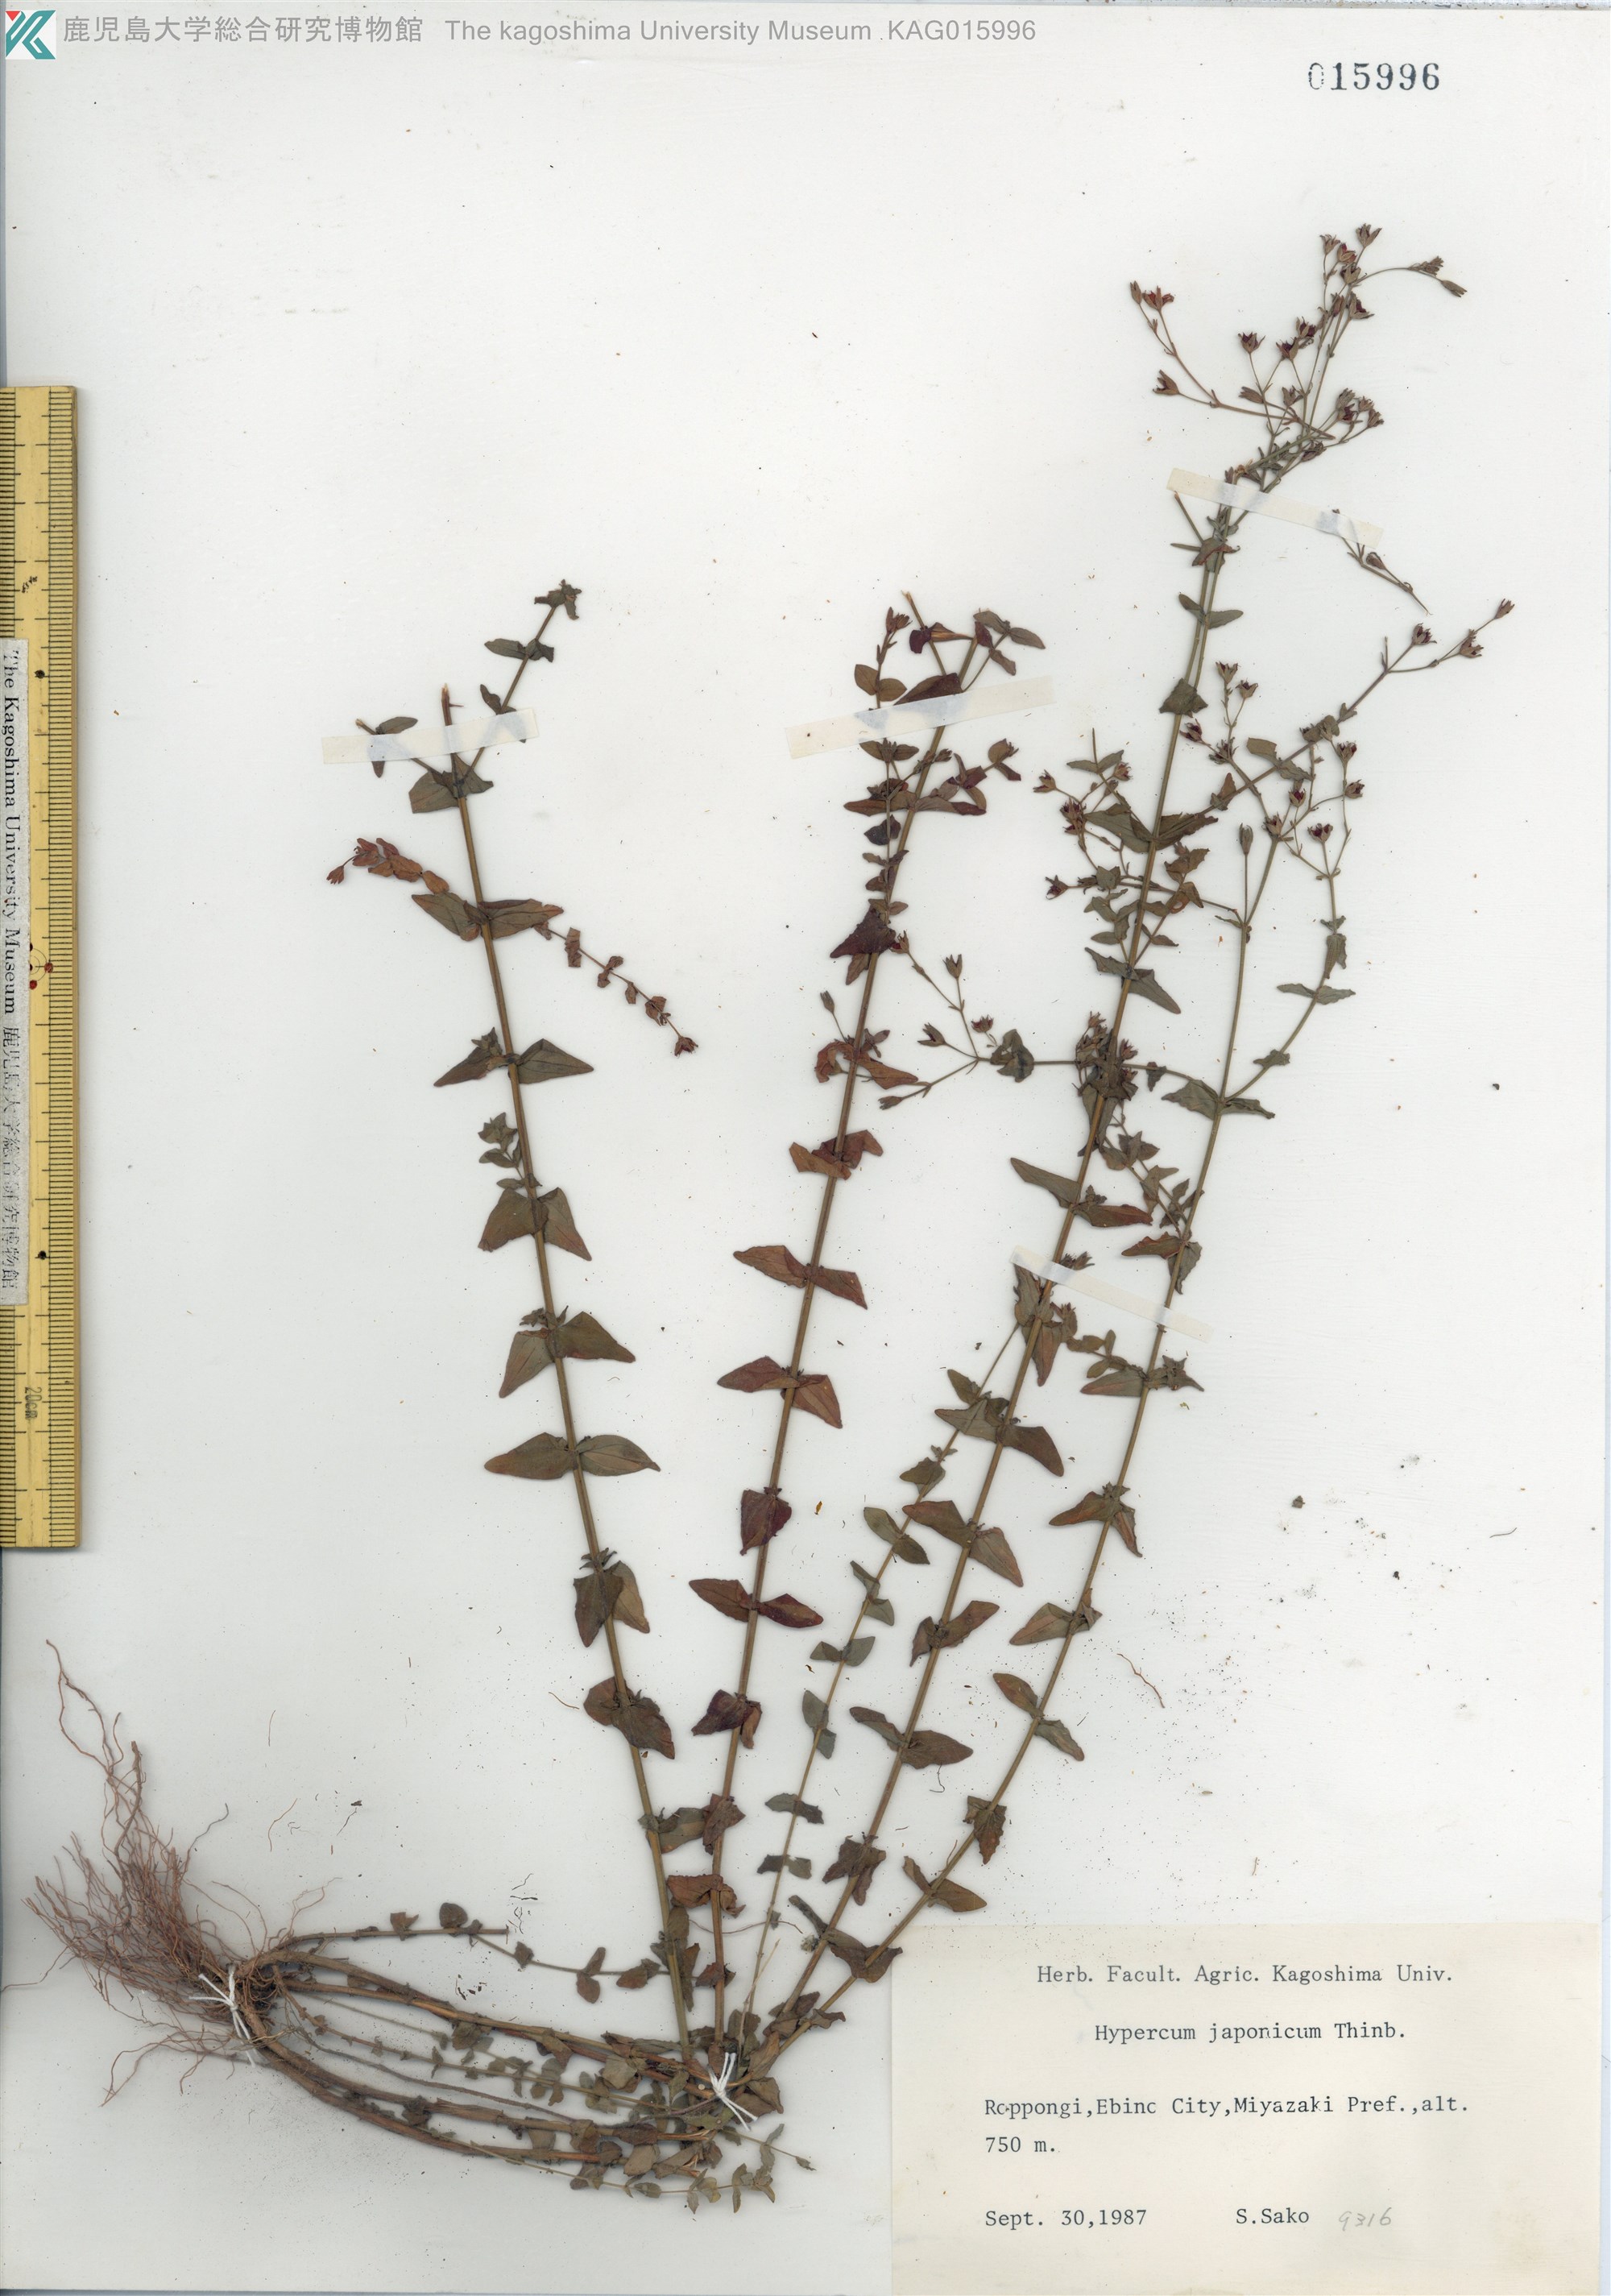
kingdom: Plantae
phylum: Tracheophyta
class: Magnoliopsida
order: Malpighiales
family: Hypericaceae
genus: Hypericum
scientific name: Hypericum japonicum
